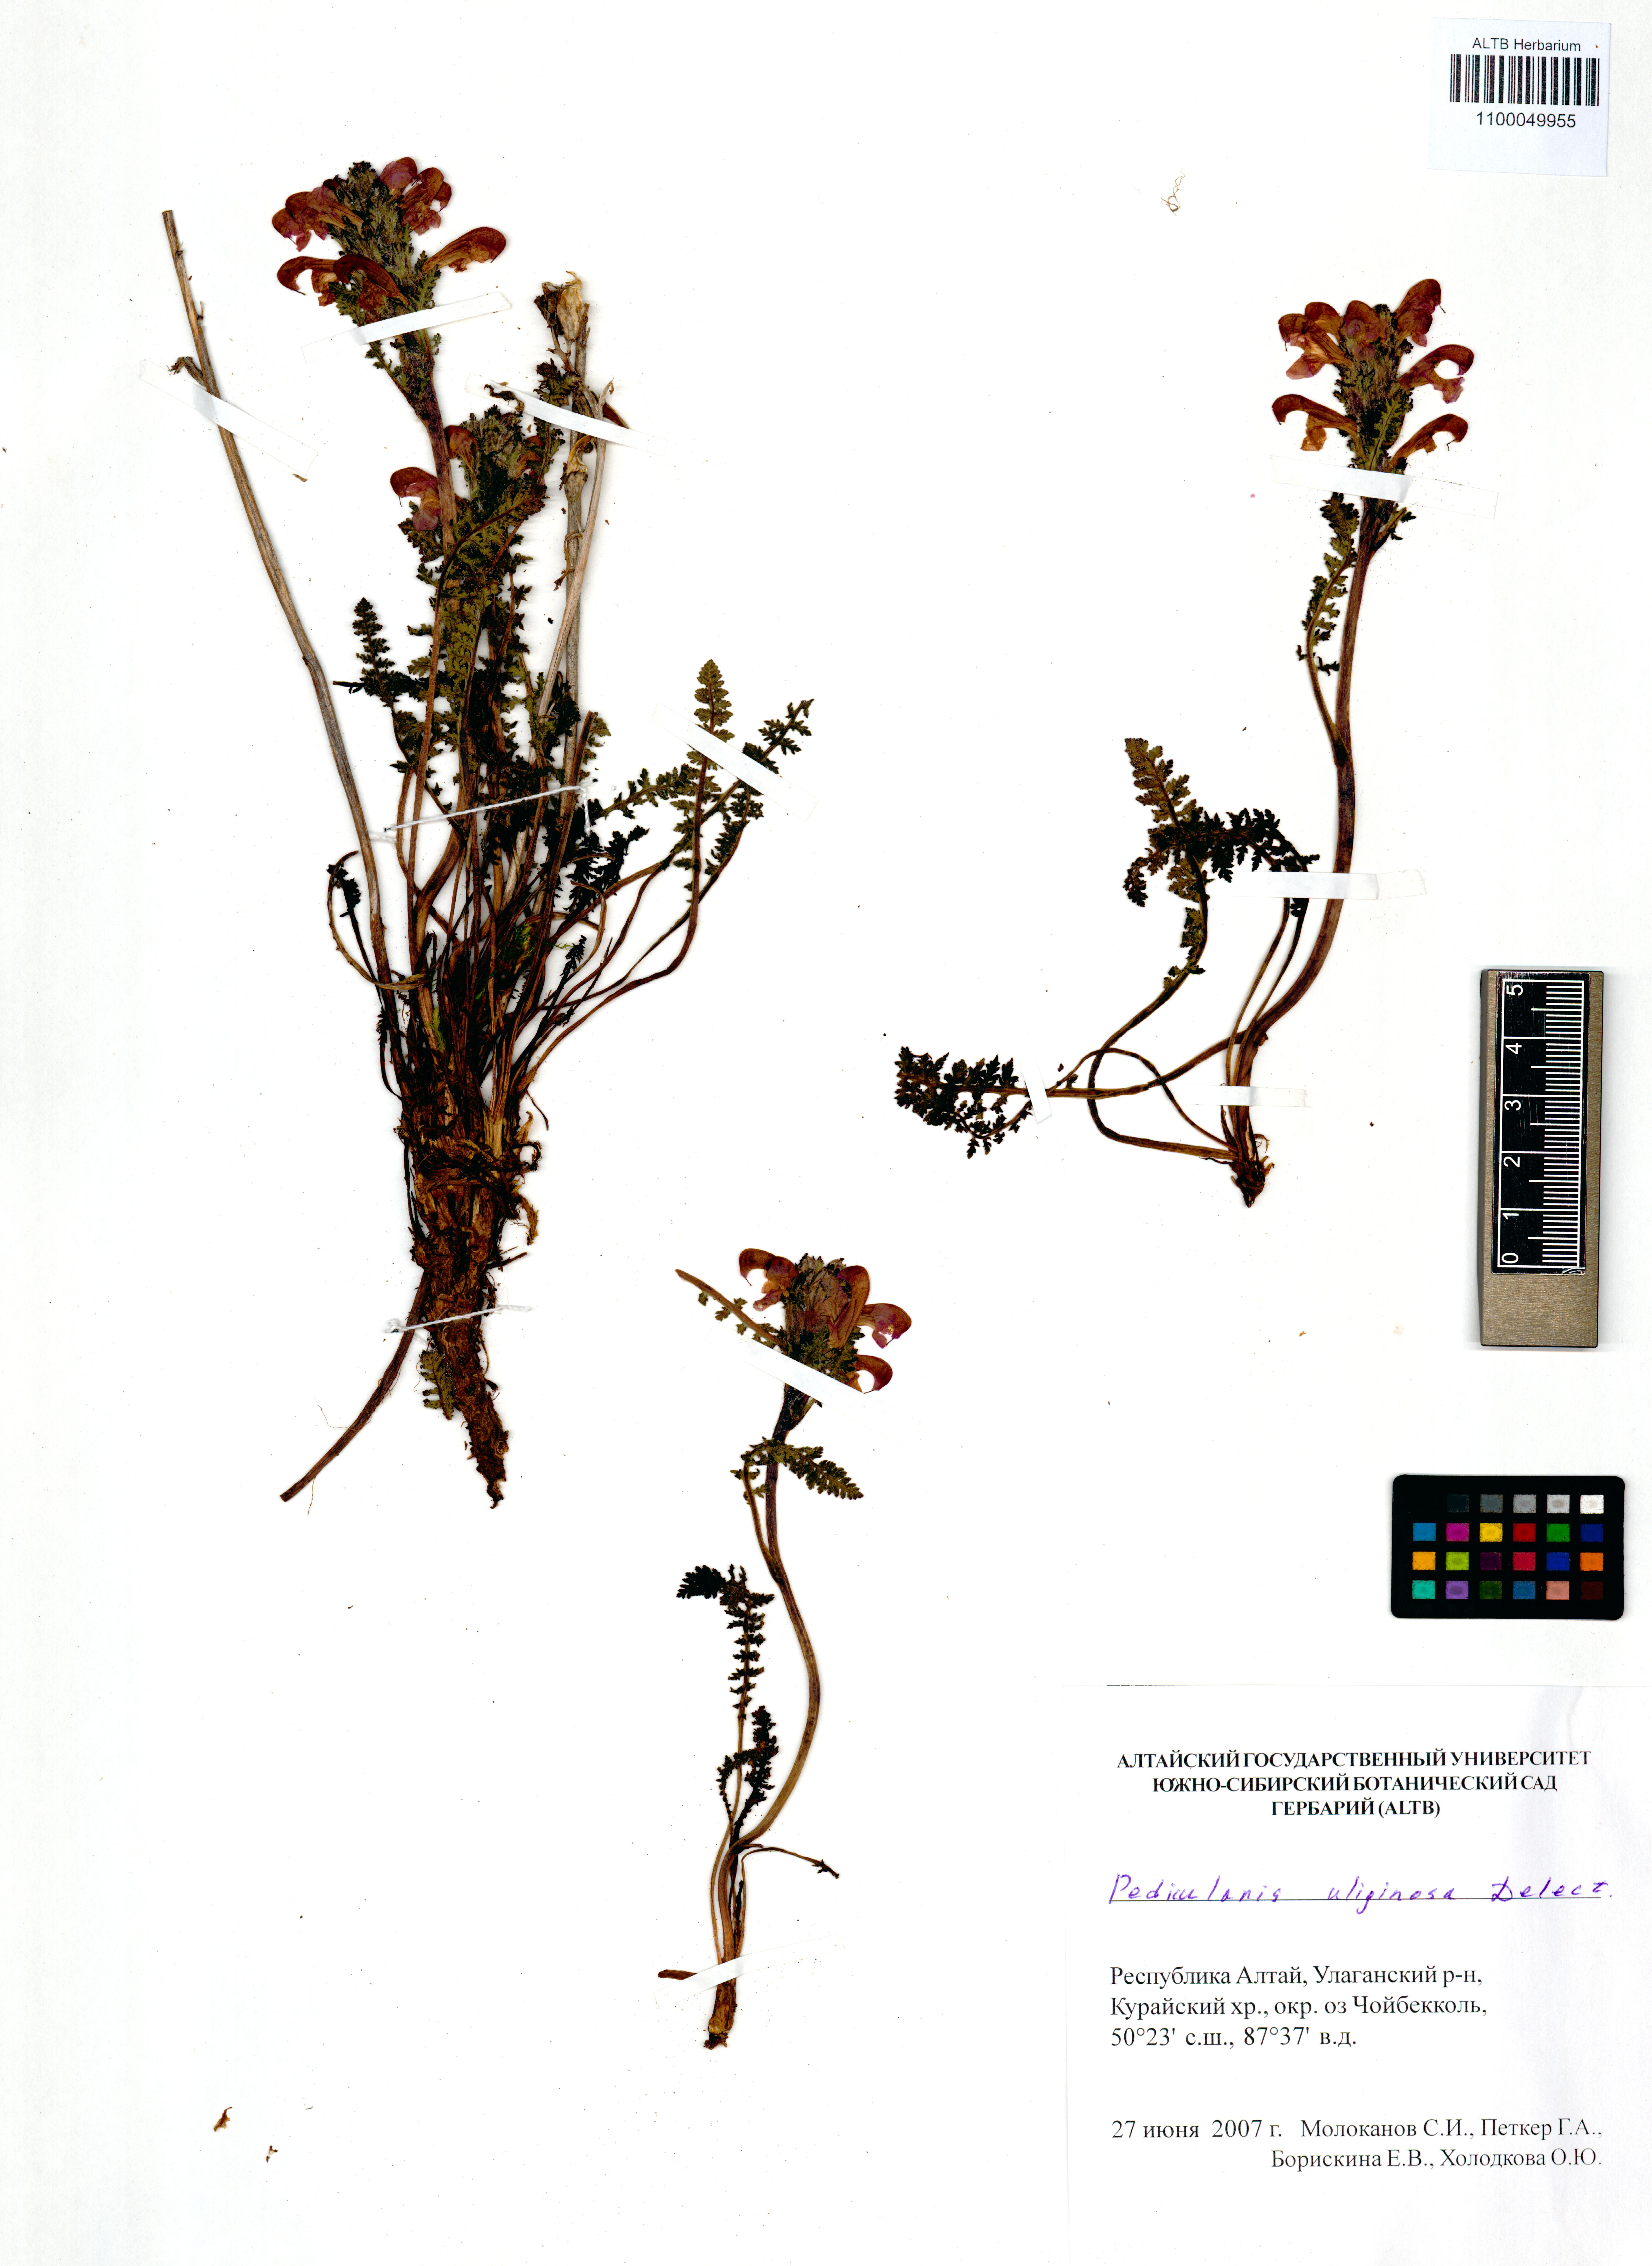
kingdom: Plantae
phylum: Tracheophyta
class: Magnoliopsida
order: Lamiales
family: Orobanchaceae
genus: Pedicularis
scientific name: Pedicularis uliginosa
